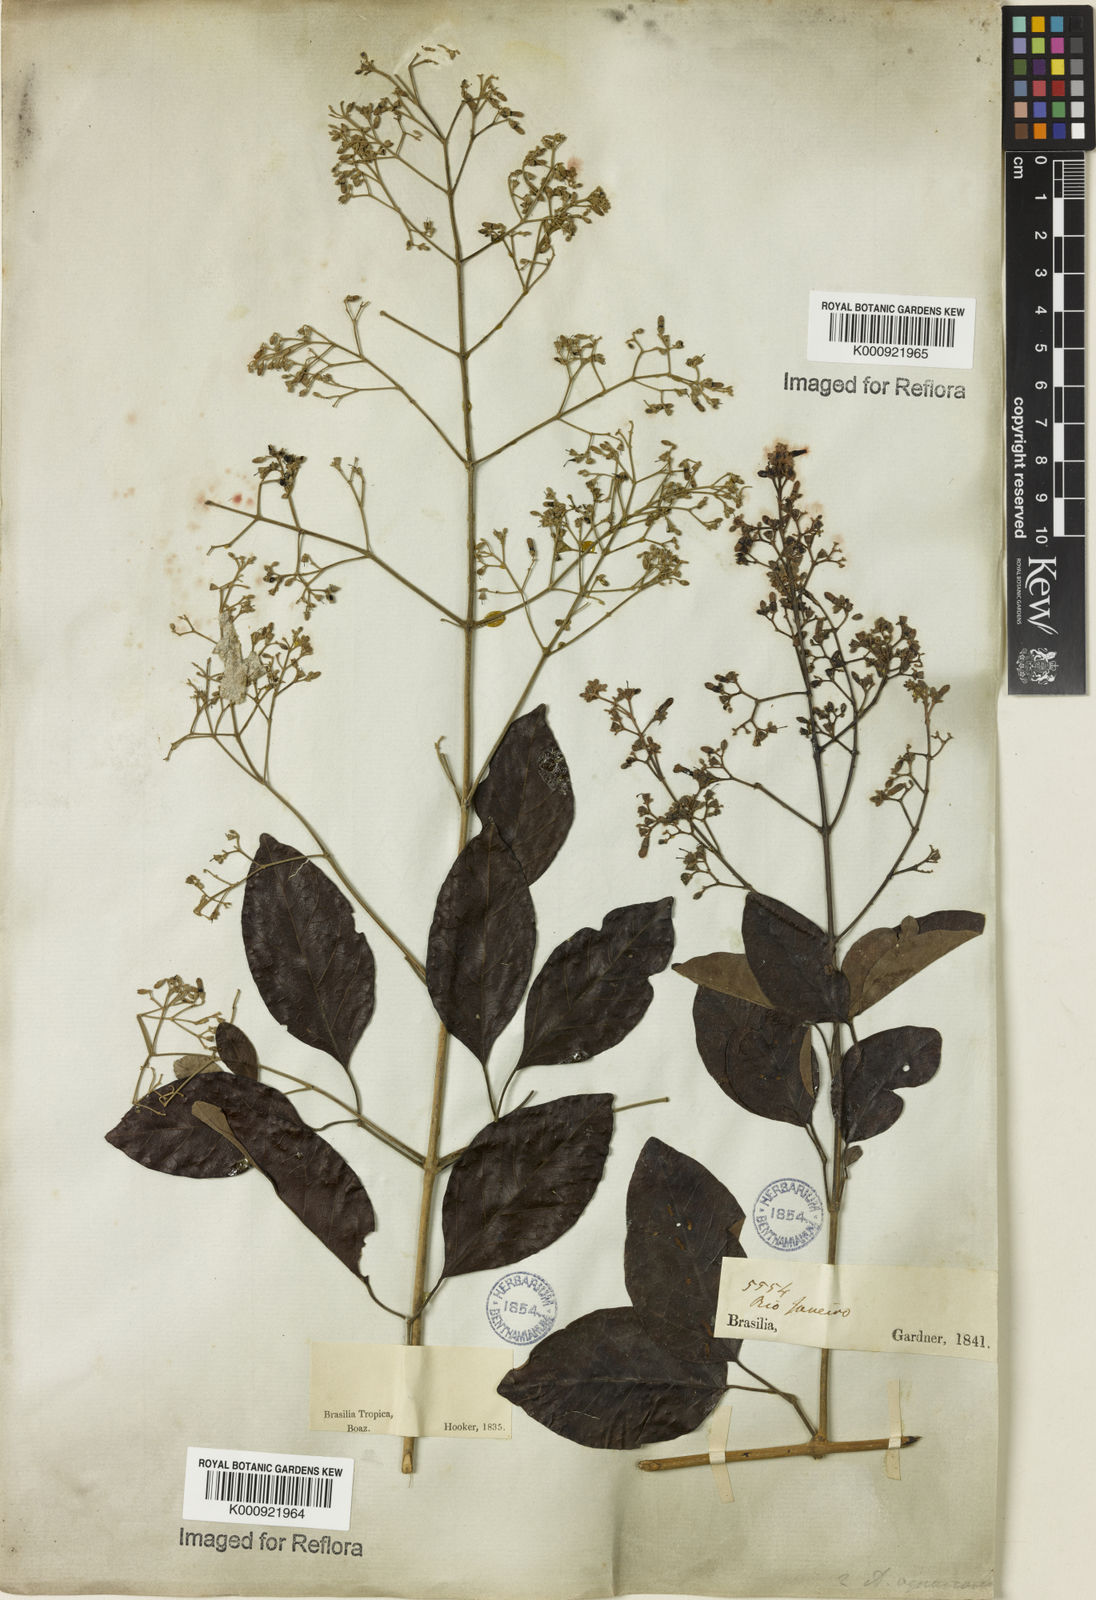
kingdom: Plantae
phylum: Tracheophyta
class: Magnoliopsida
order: Lamiales
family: Bignoniaceae
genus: Fridericia
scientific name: Fridericia rego
